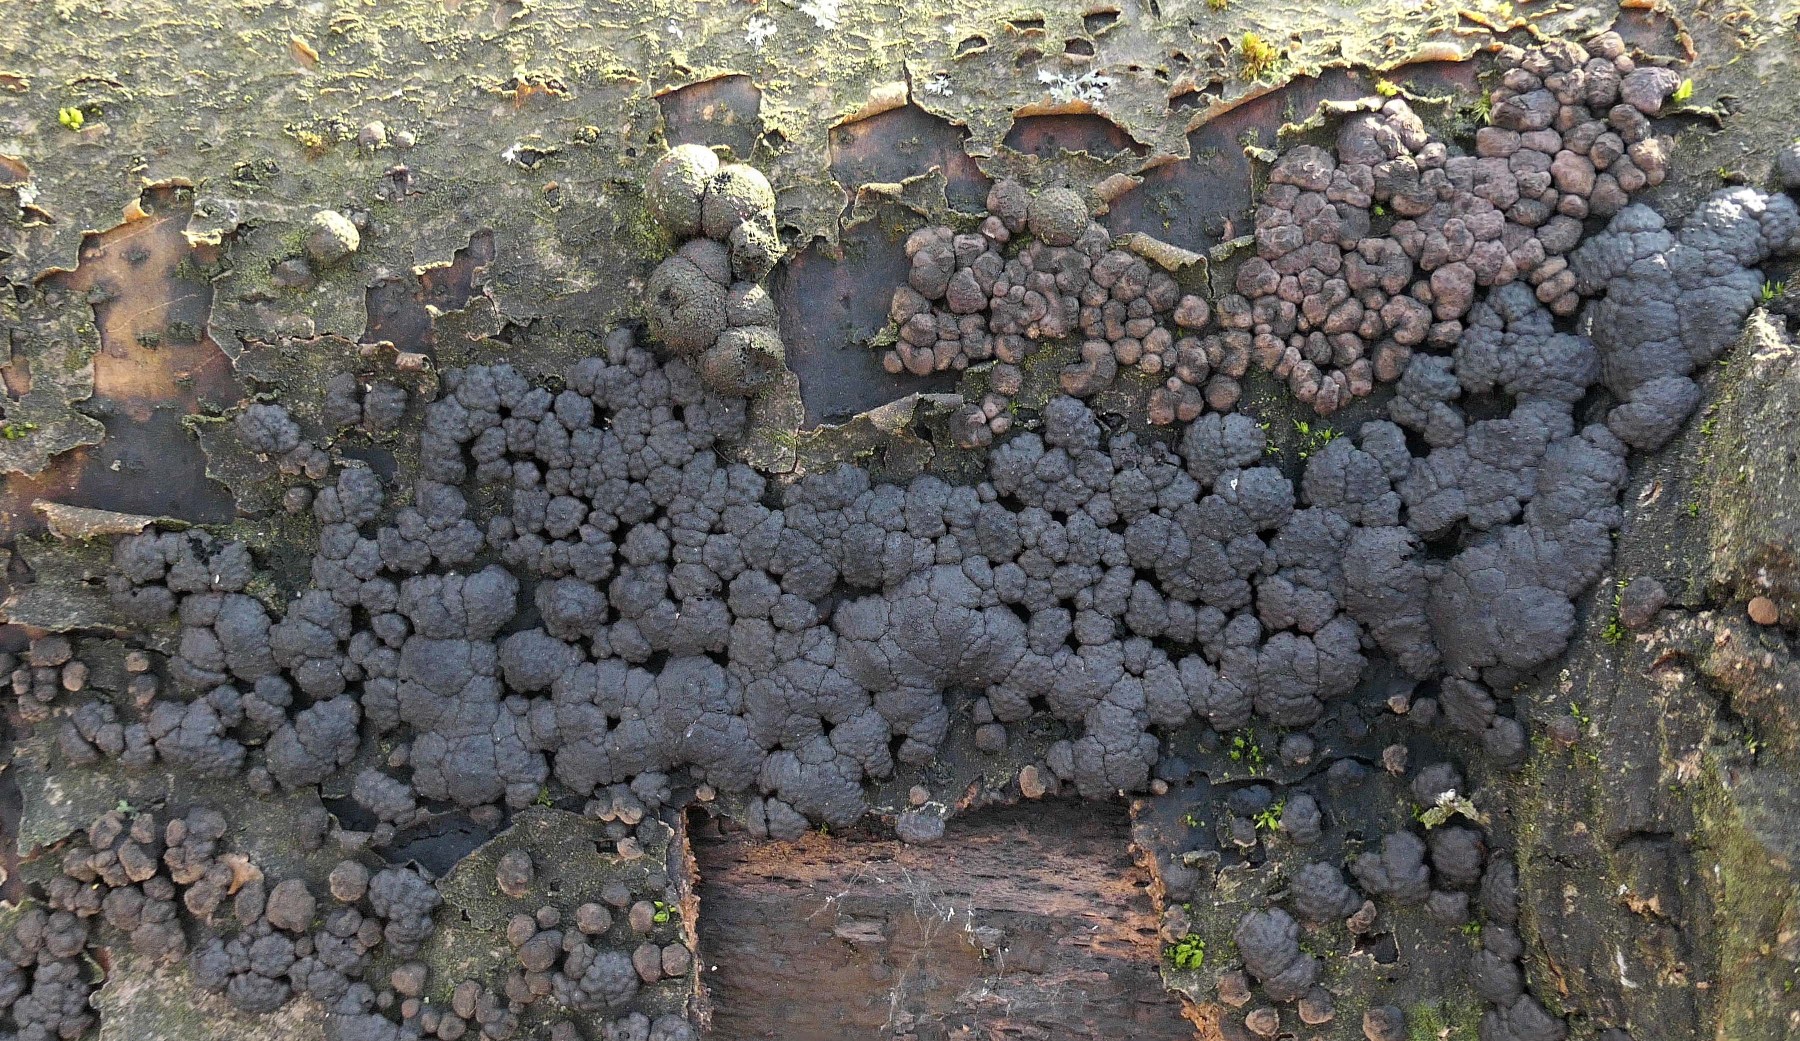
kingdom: Fungi
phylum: Ascomycota
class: Sordariomycetes
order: Xylariales
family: Hypoxylaceae
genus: Jackrogersella
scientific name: Jackrogersella cohaerens
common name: sammenflydende kulbær
